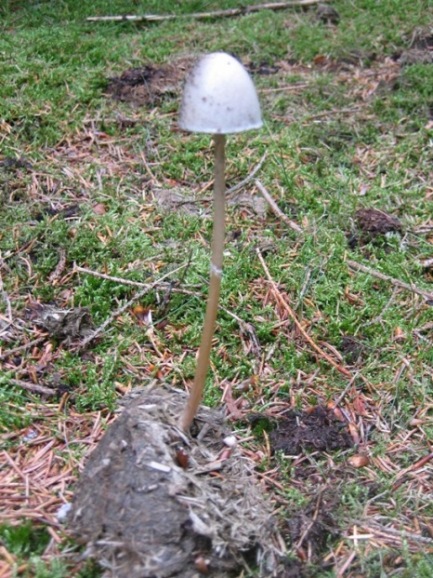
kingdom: Fungi
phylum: Basidiomycota
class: Agaricomycetes
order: Agaricales
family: Bolbitiaceae
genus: Panaeolus
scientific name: Panaeolus semiovatus
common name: ring-glanshat
